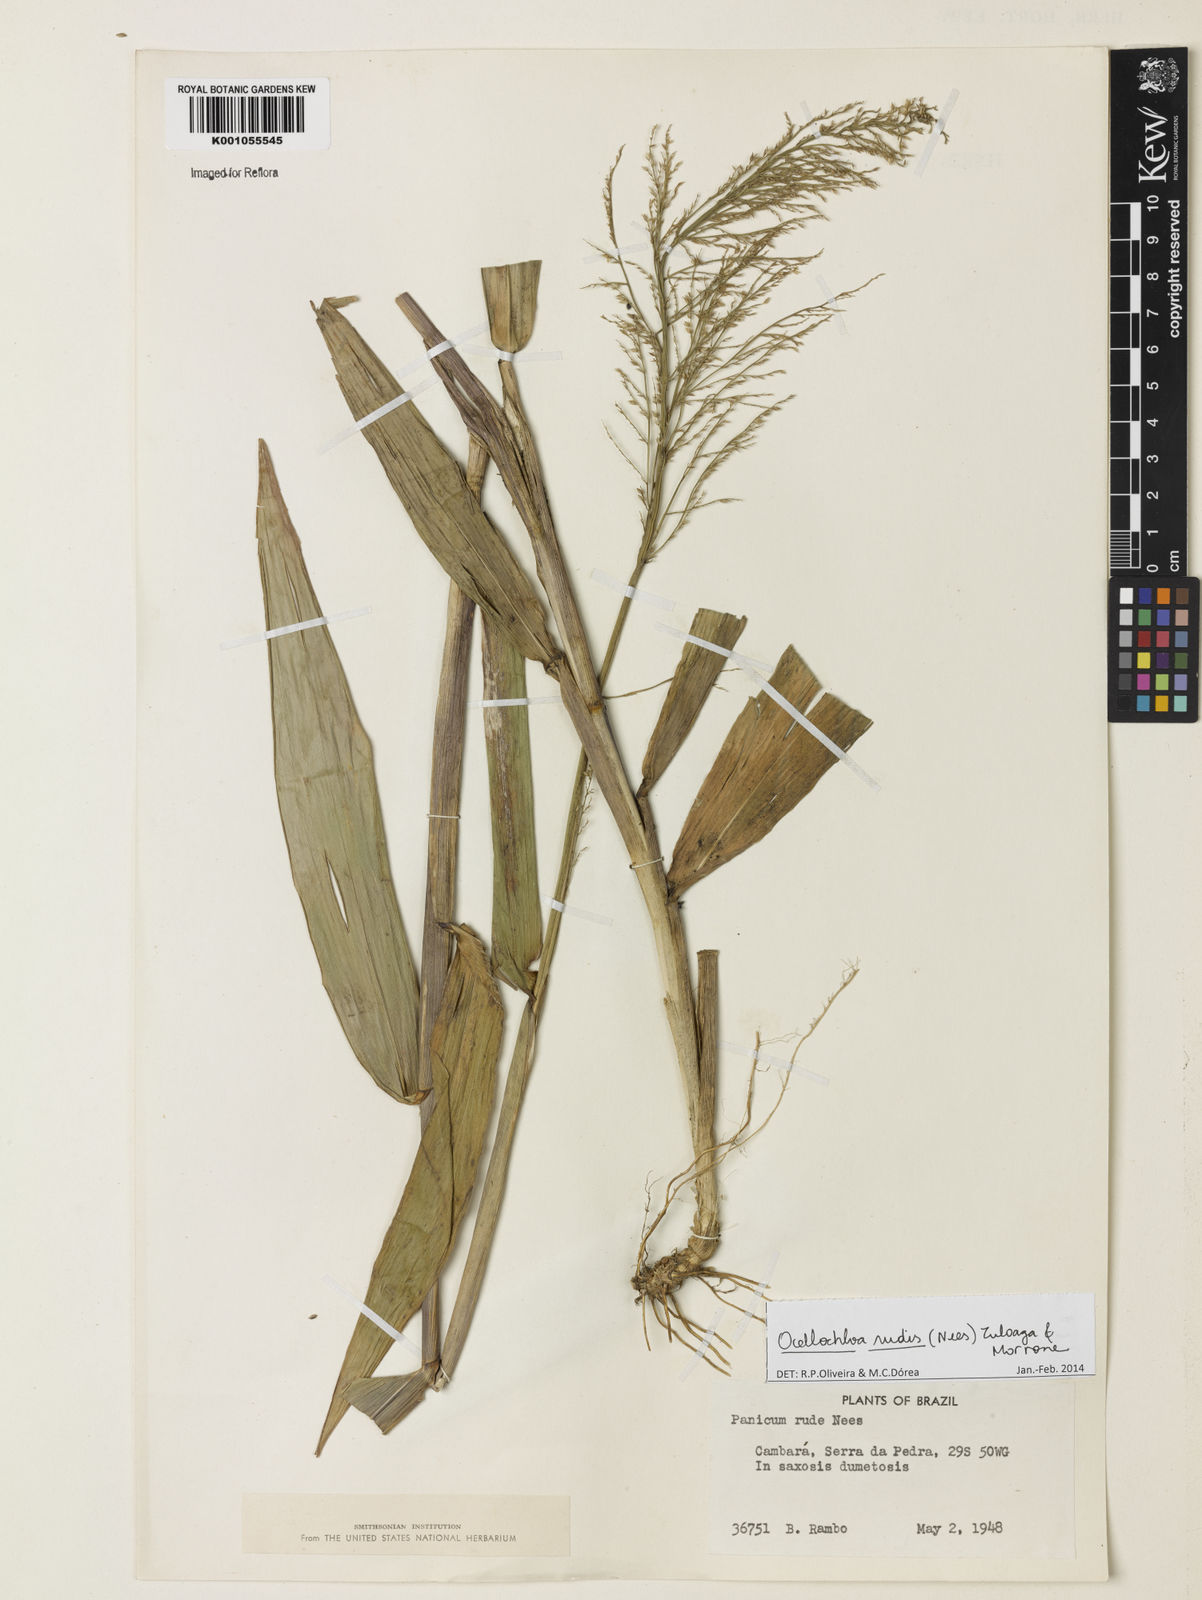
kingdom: Plantae
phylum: Tracheophyta
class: Liliopsida
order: Poales
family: Poaceae
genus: Ocellochloa
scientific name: Ocellochloa rudis
